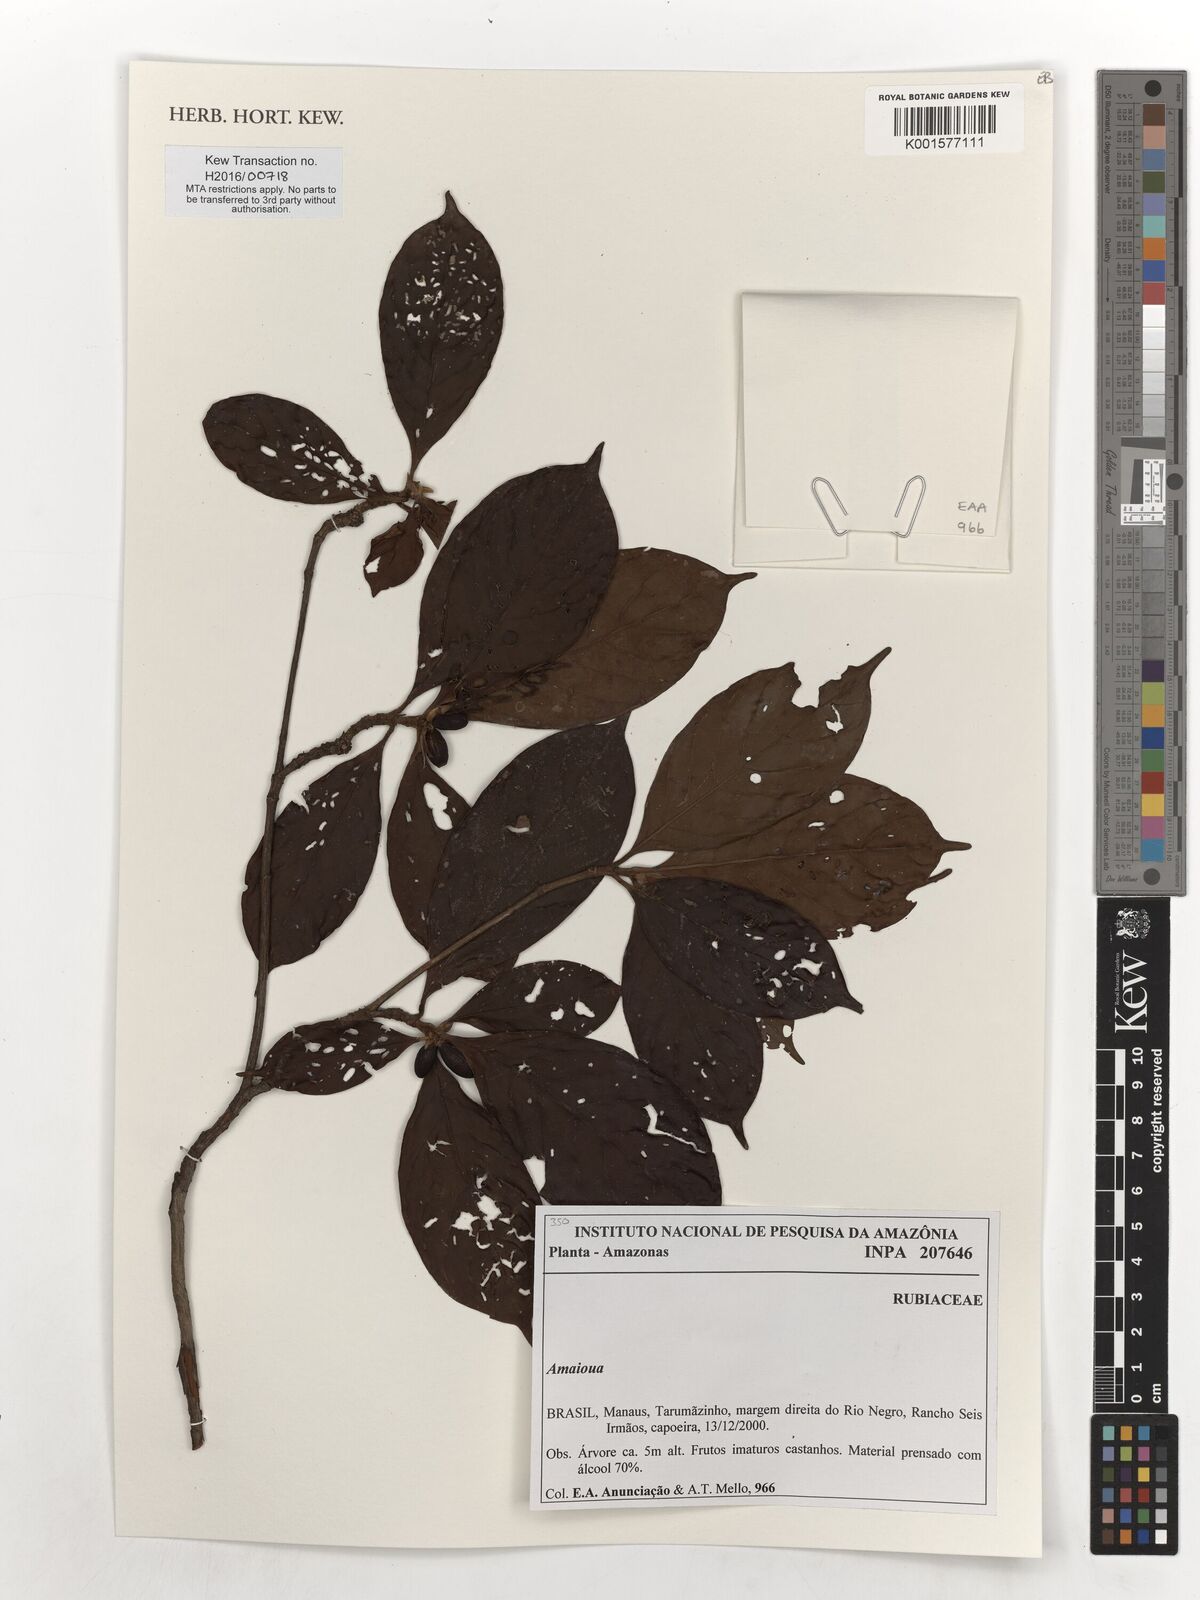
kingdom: Plantae
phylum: Tracheophyta
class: Magnoliopsida
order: Gentianales
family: Rubiaceae
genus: Amaioua
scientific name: Amaioua
